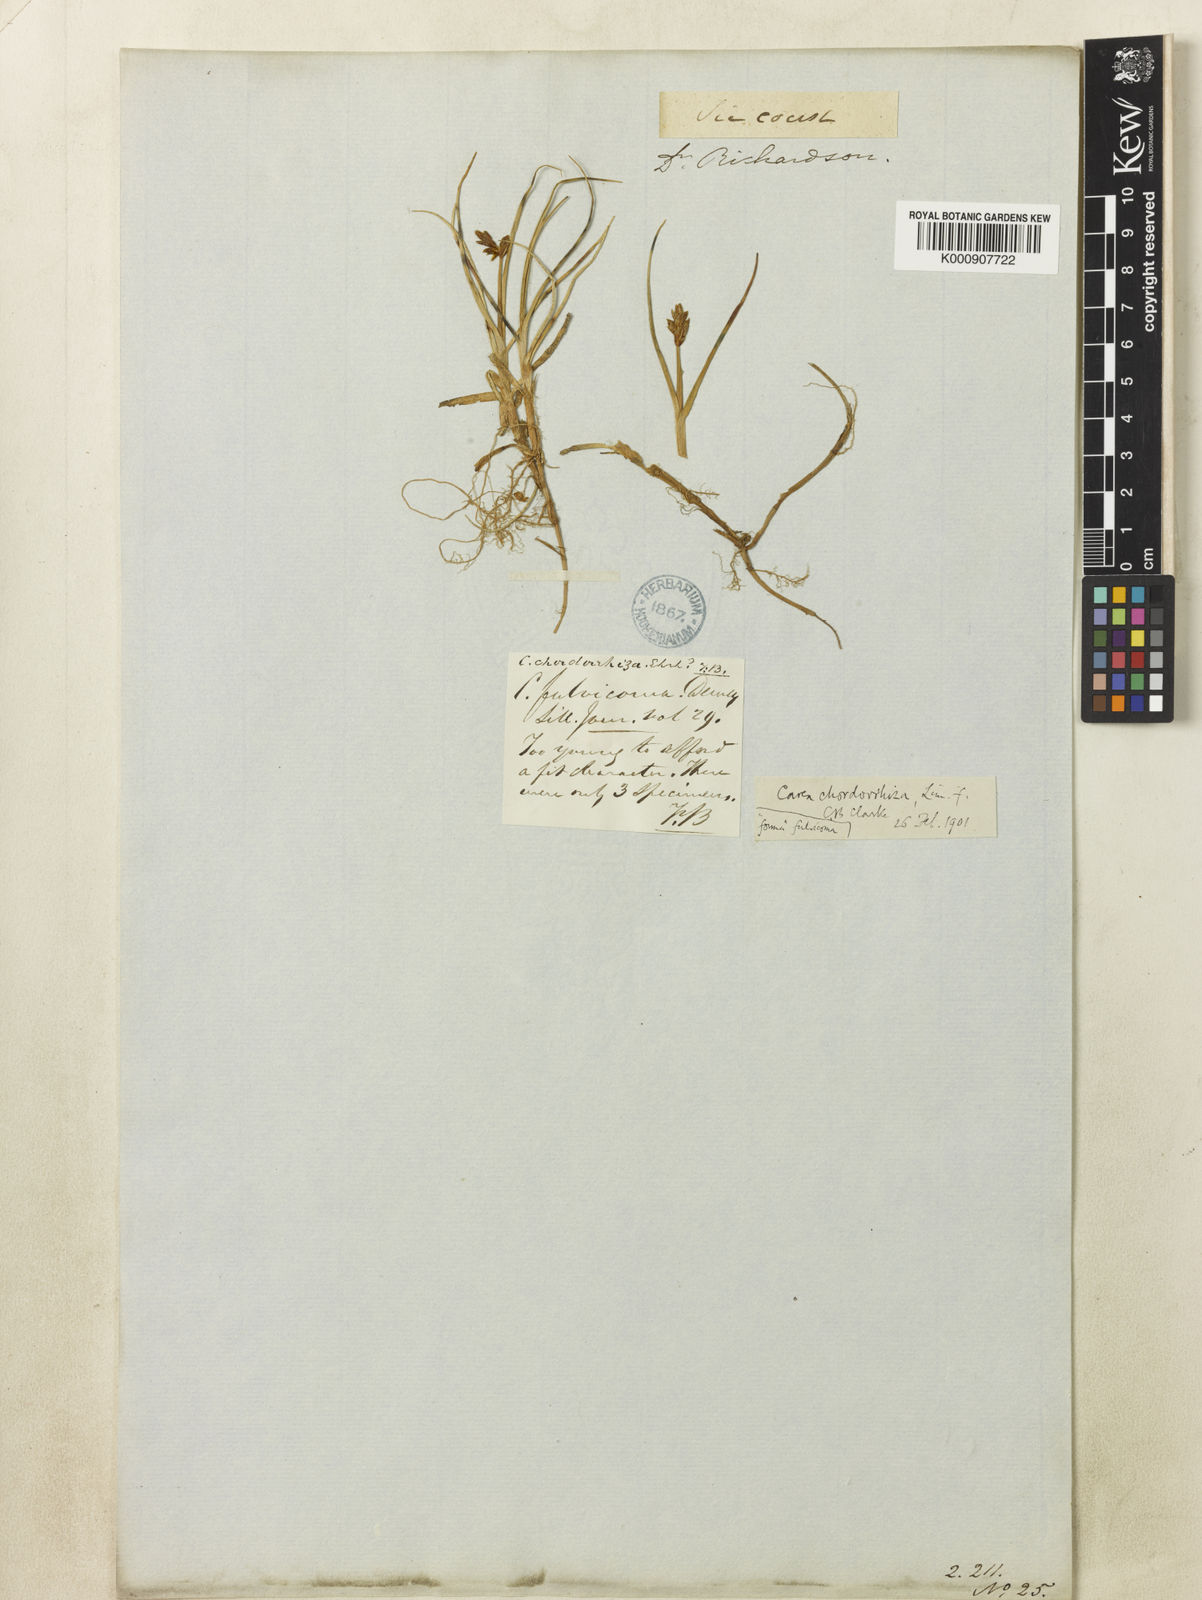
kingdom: Plantae
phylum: Tracheophyta
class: Liliopsida
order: Poales
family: Cyperaceae
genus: Carex
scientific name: Carex chordorrhiza
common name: String sedge
